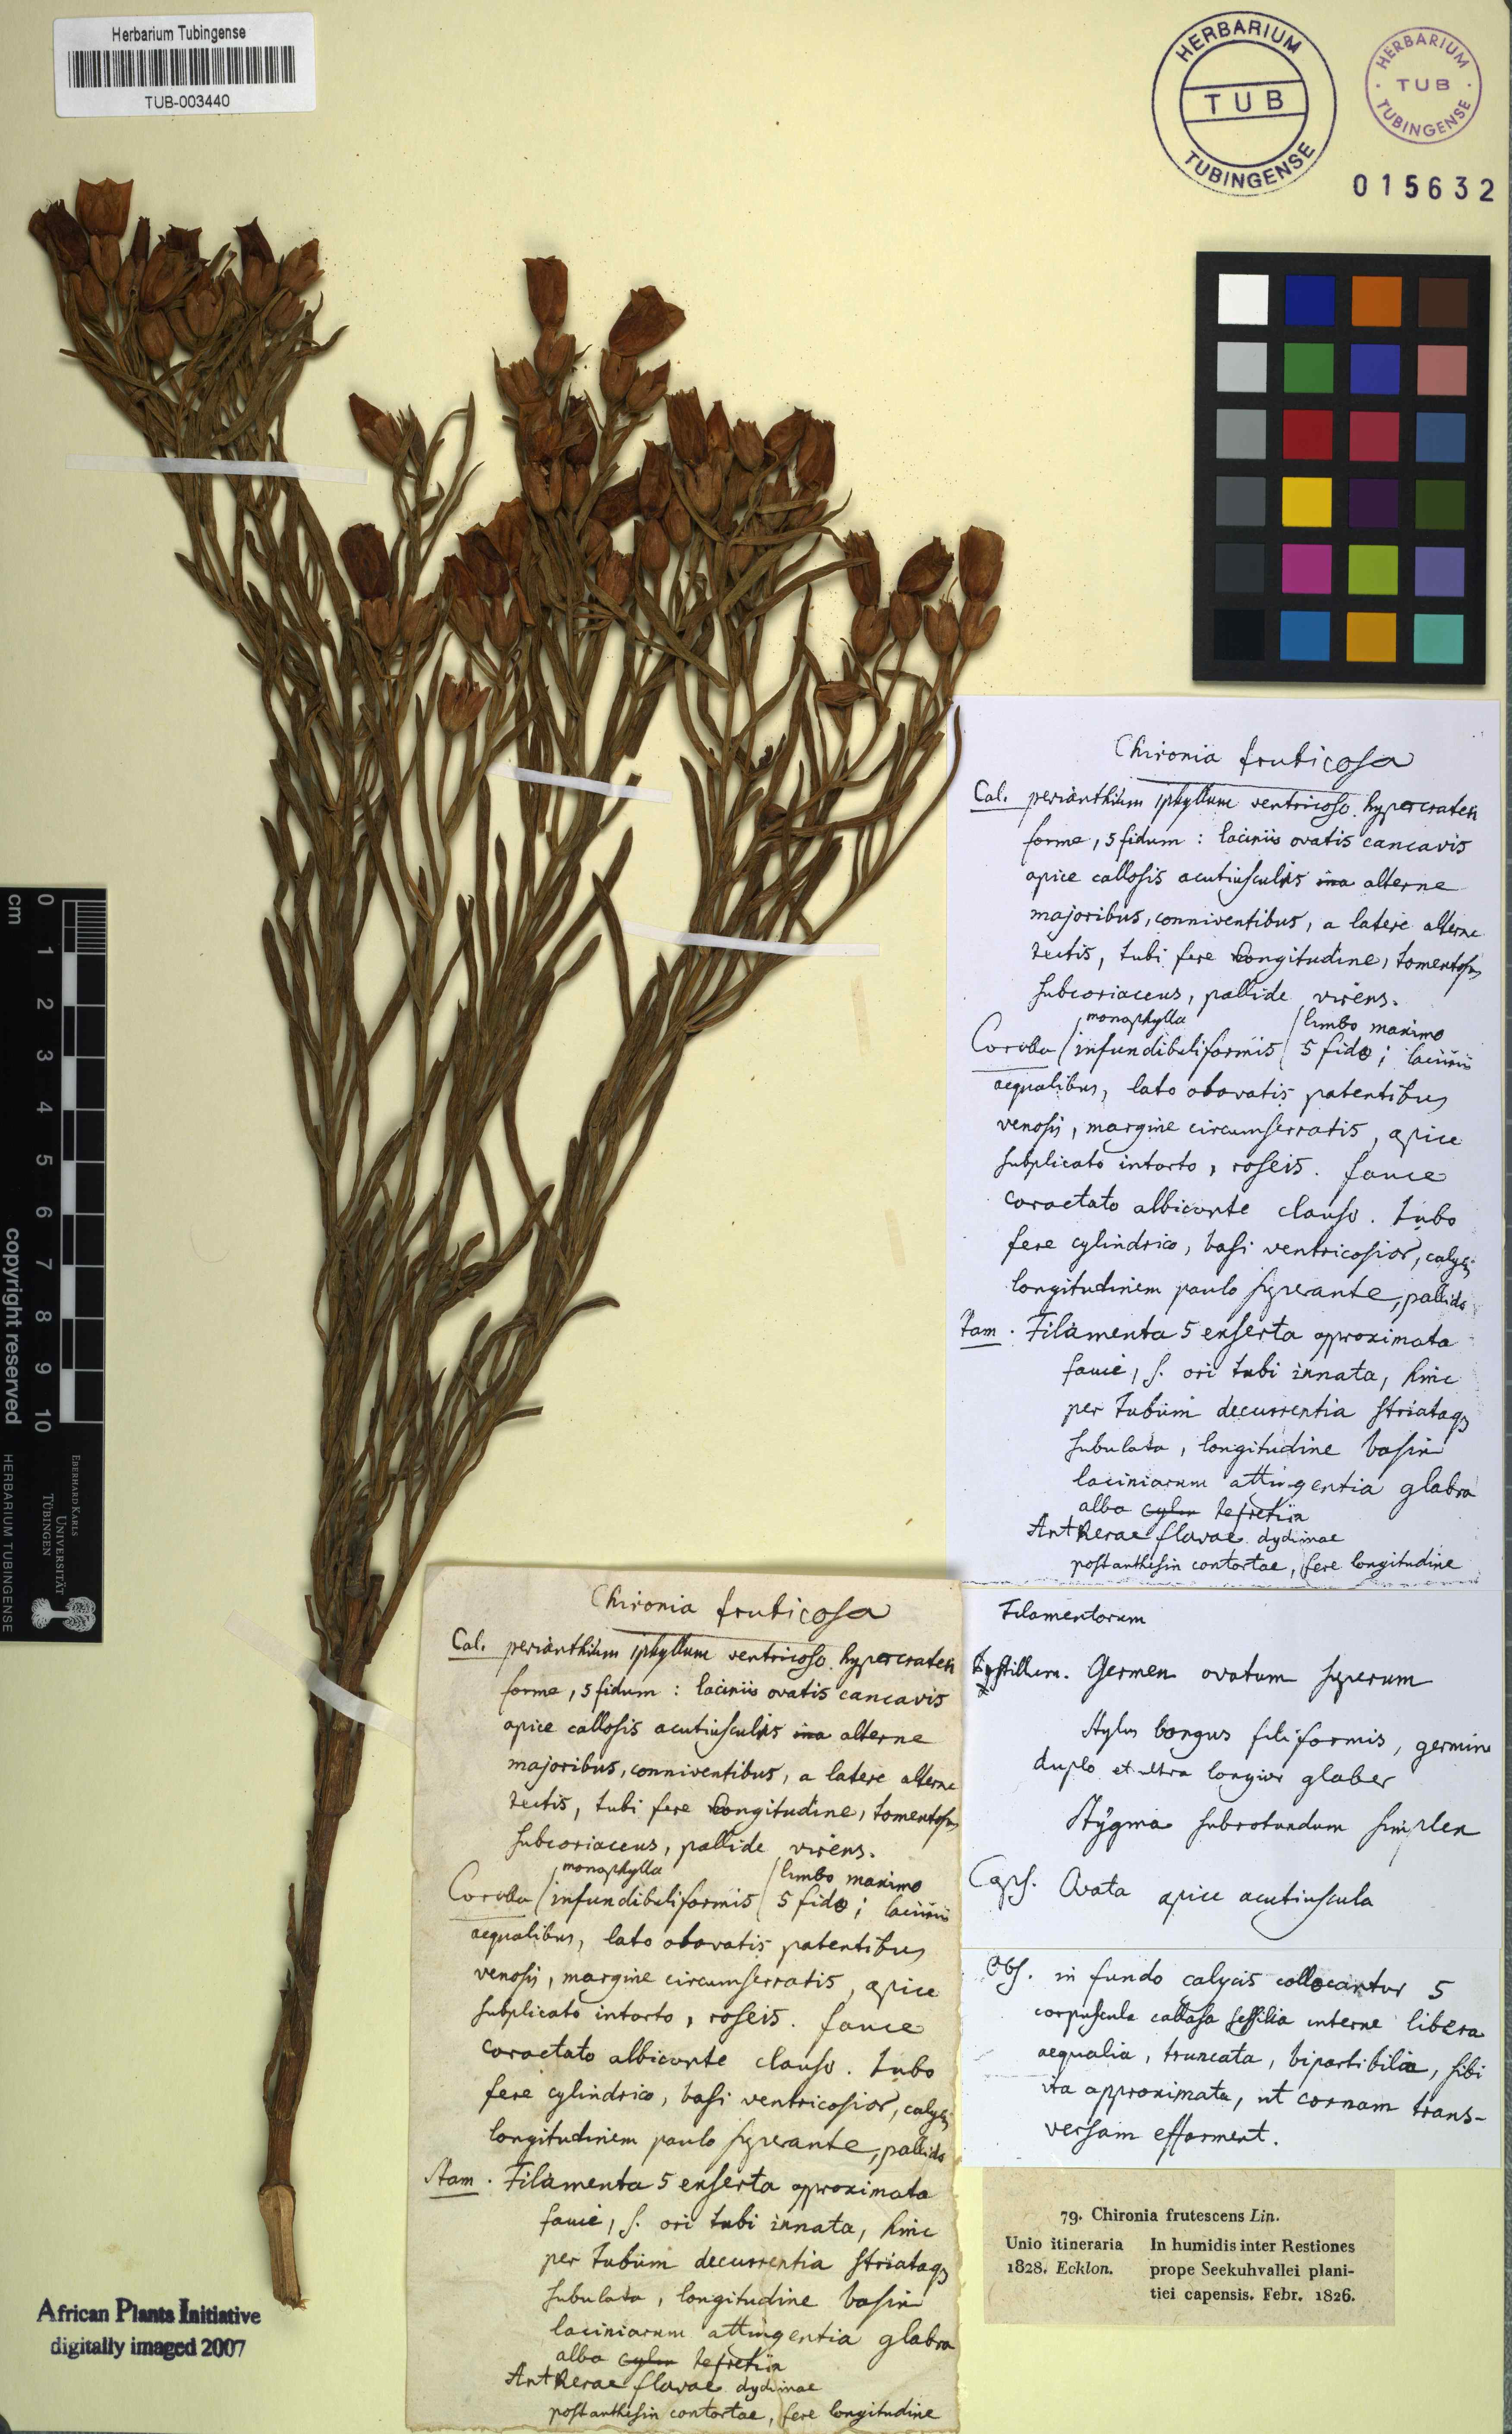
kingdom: Plantae
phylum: Tracheophyta
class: Magnoliopsida
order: Gentianales
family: Gentianaceae
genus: Orphium
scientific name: Orphium frutescens
